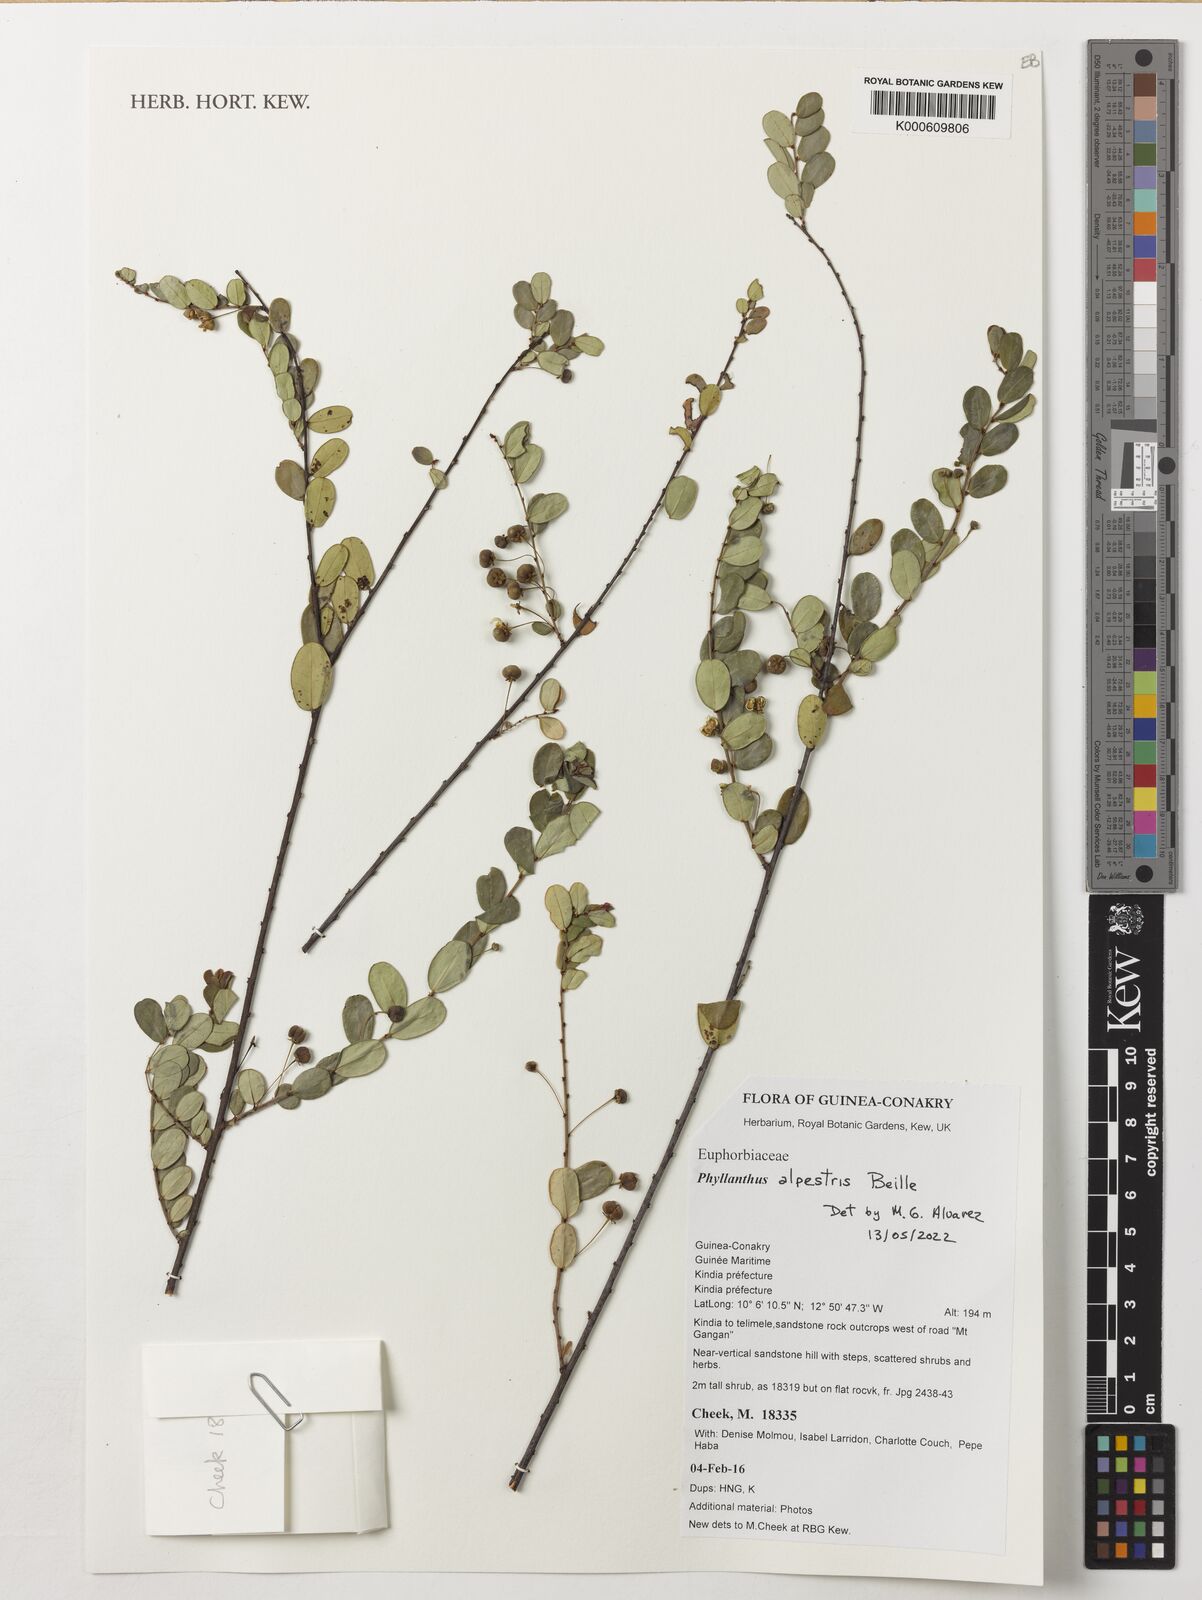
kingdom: Plantae
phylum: Tracheophyta
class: Magnoliopsida
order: Malpighiales
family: Phyllanthaceae
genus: Phyllanthus
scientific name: Phyllanthus alpestris
